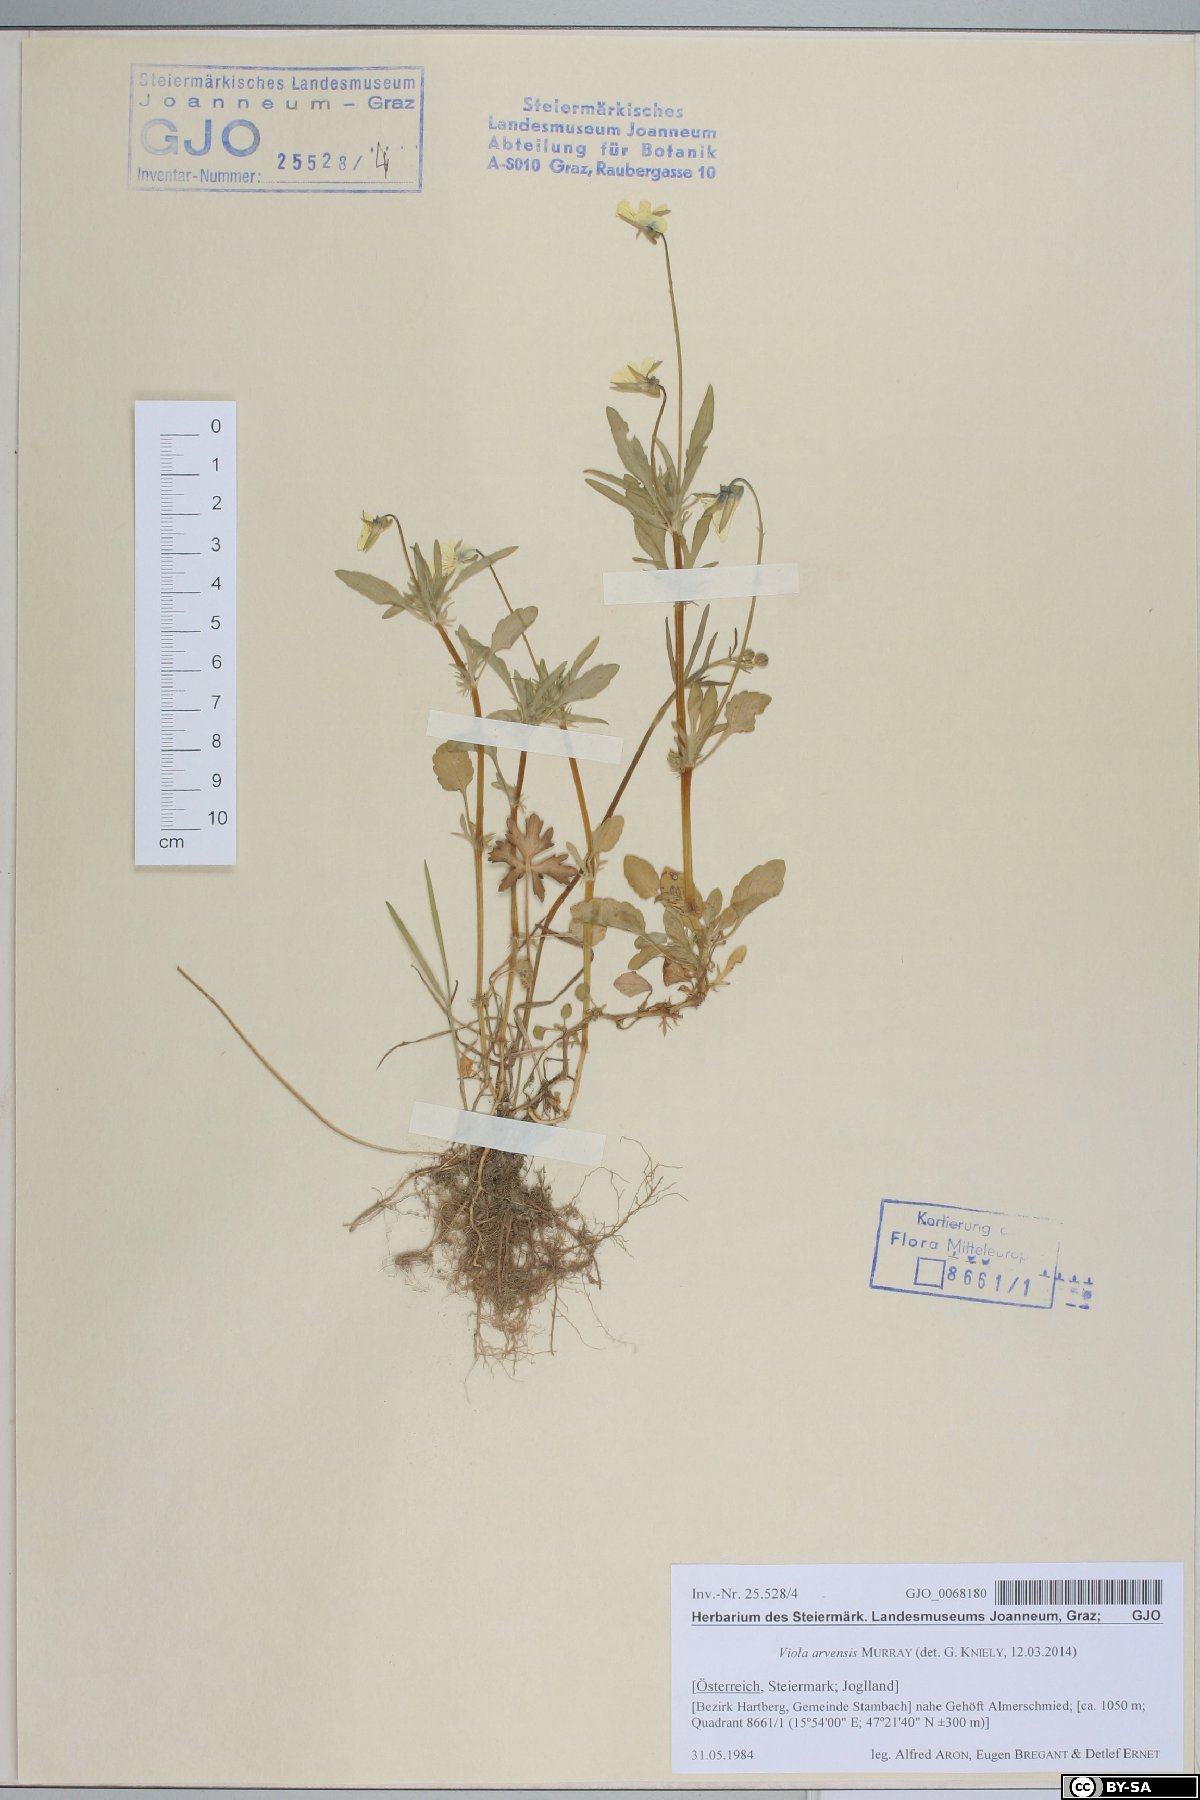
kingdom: Plantae
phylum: Tracheophyta
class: Magnoliopsida
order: Malpighiales
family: Violaceae
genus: Viola
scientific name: Viola arvensis
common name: Field pansy
